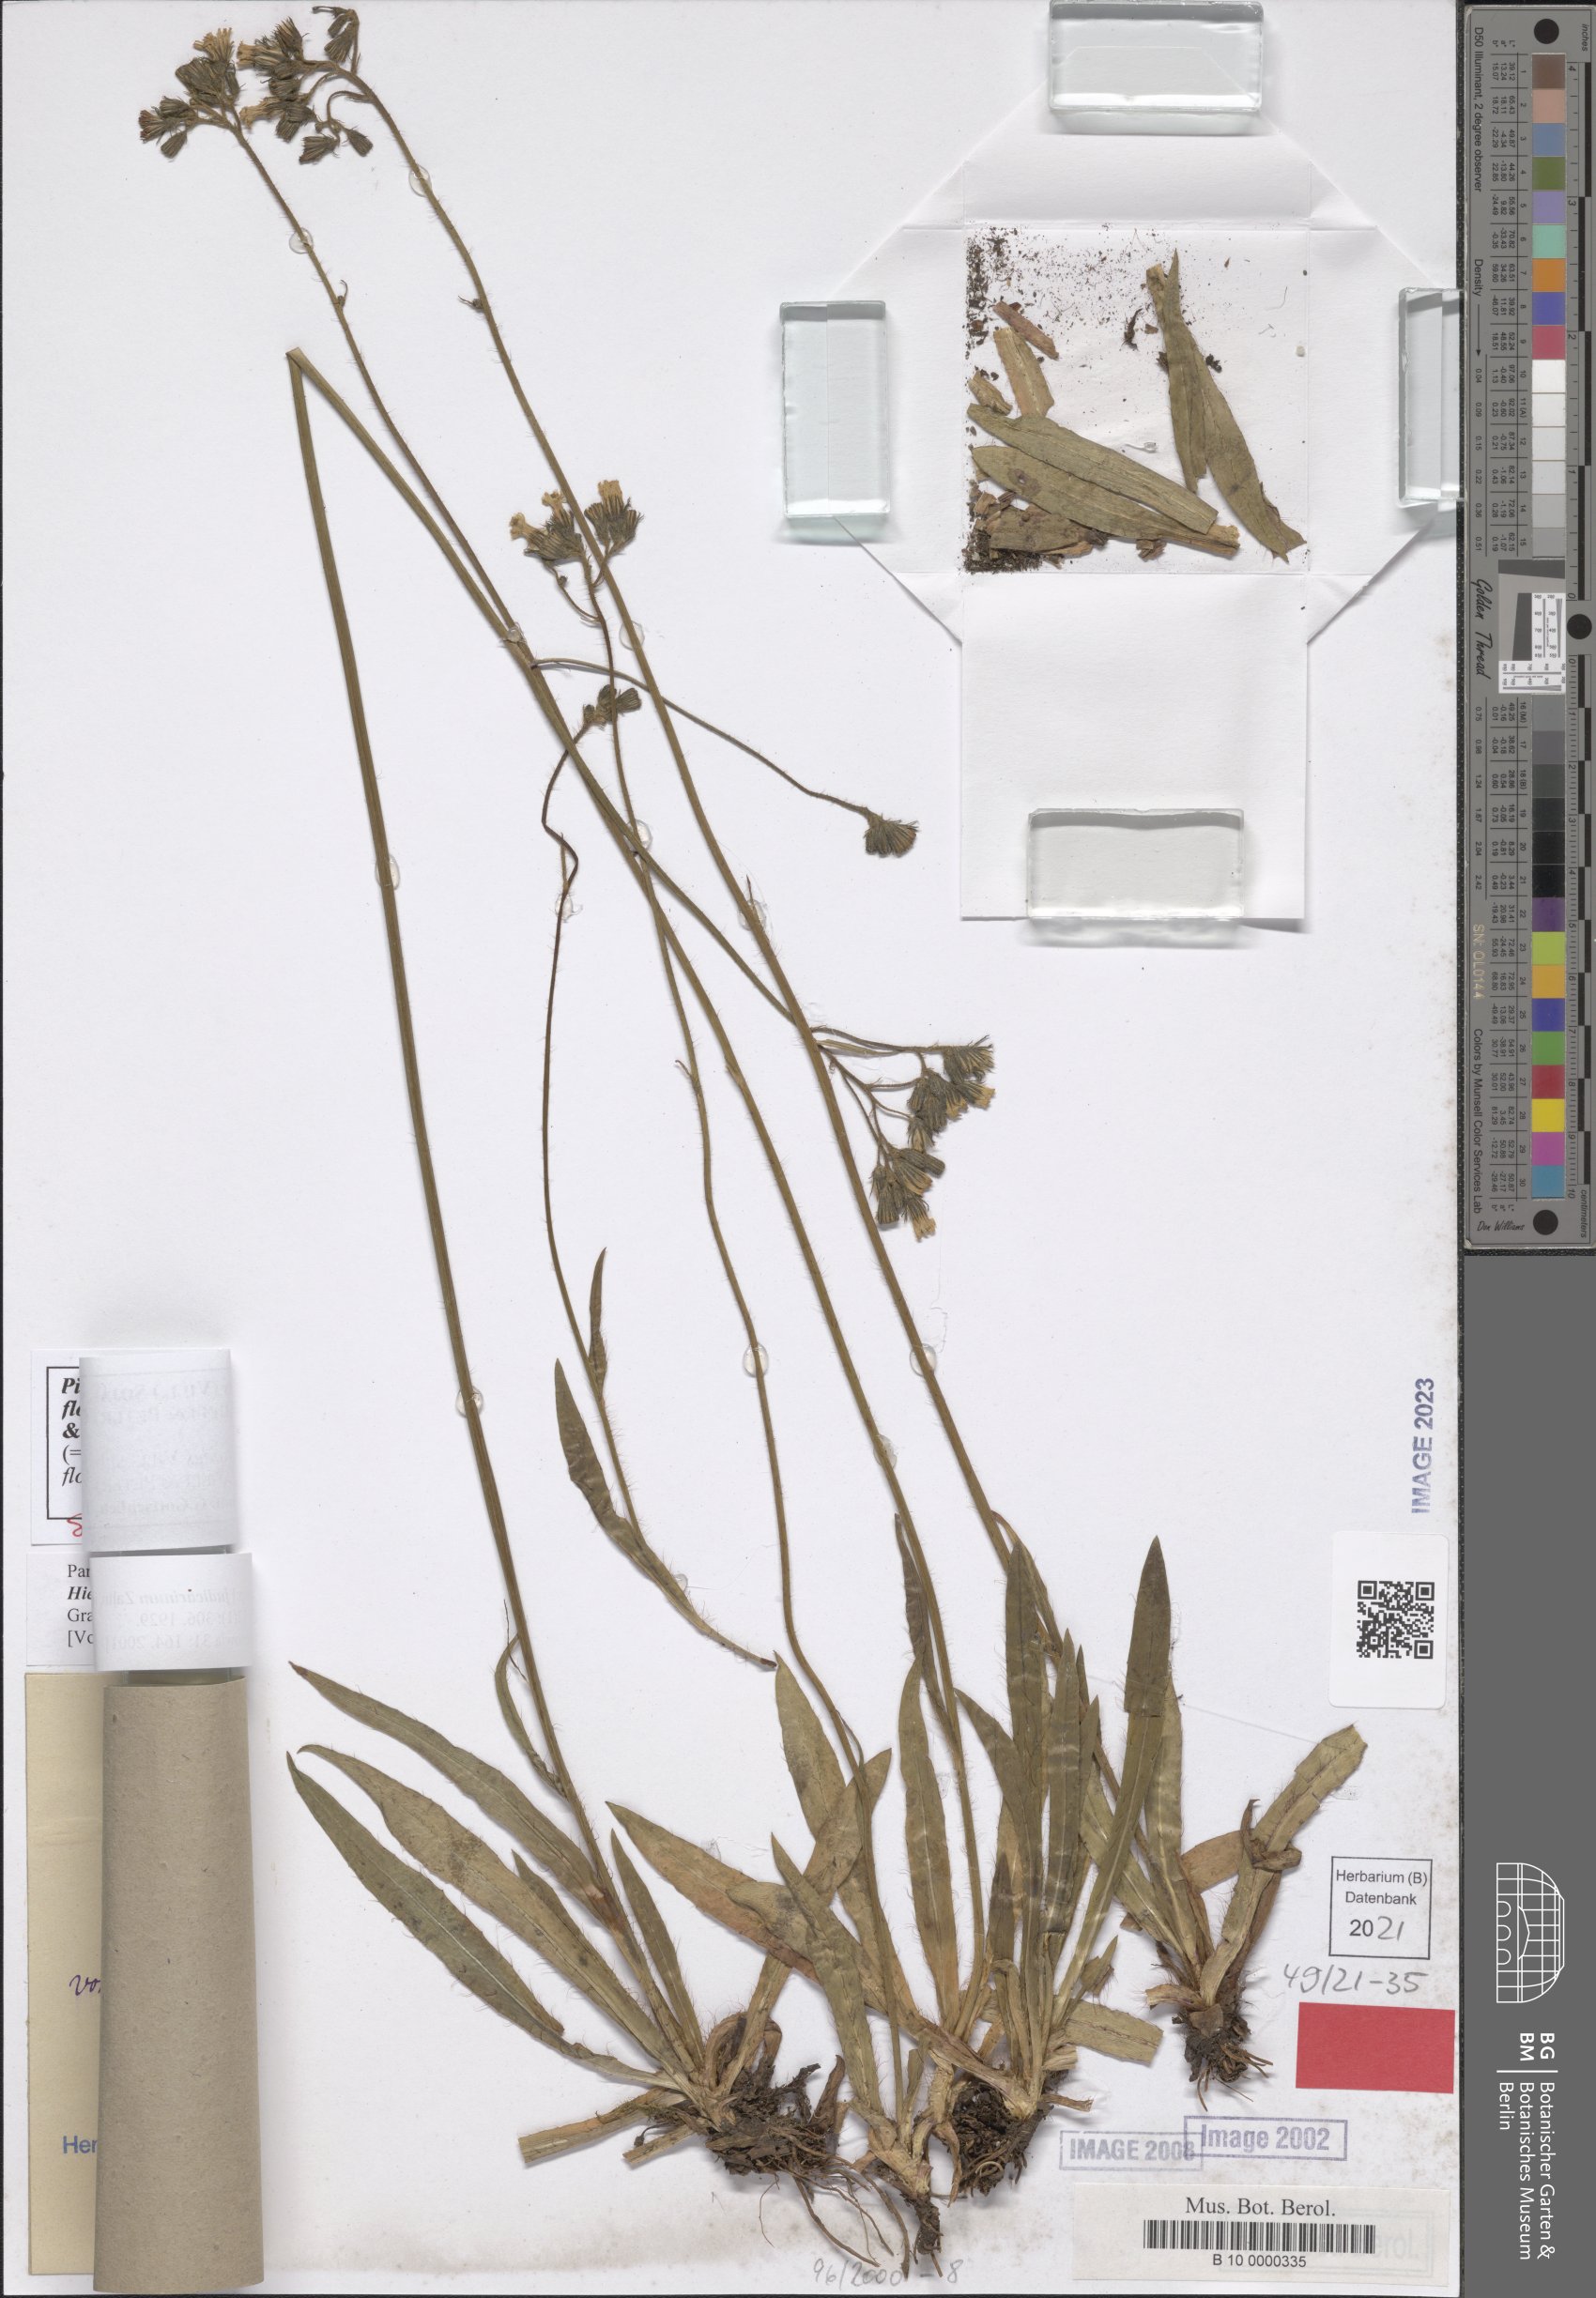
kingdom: Plantae
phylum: Tracheophyta
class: Magnoliopsida
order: Asterales
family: Asteraceae
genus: Pilosella
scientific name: Pilosella piloselloides
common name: Glaucous king-devil
